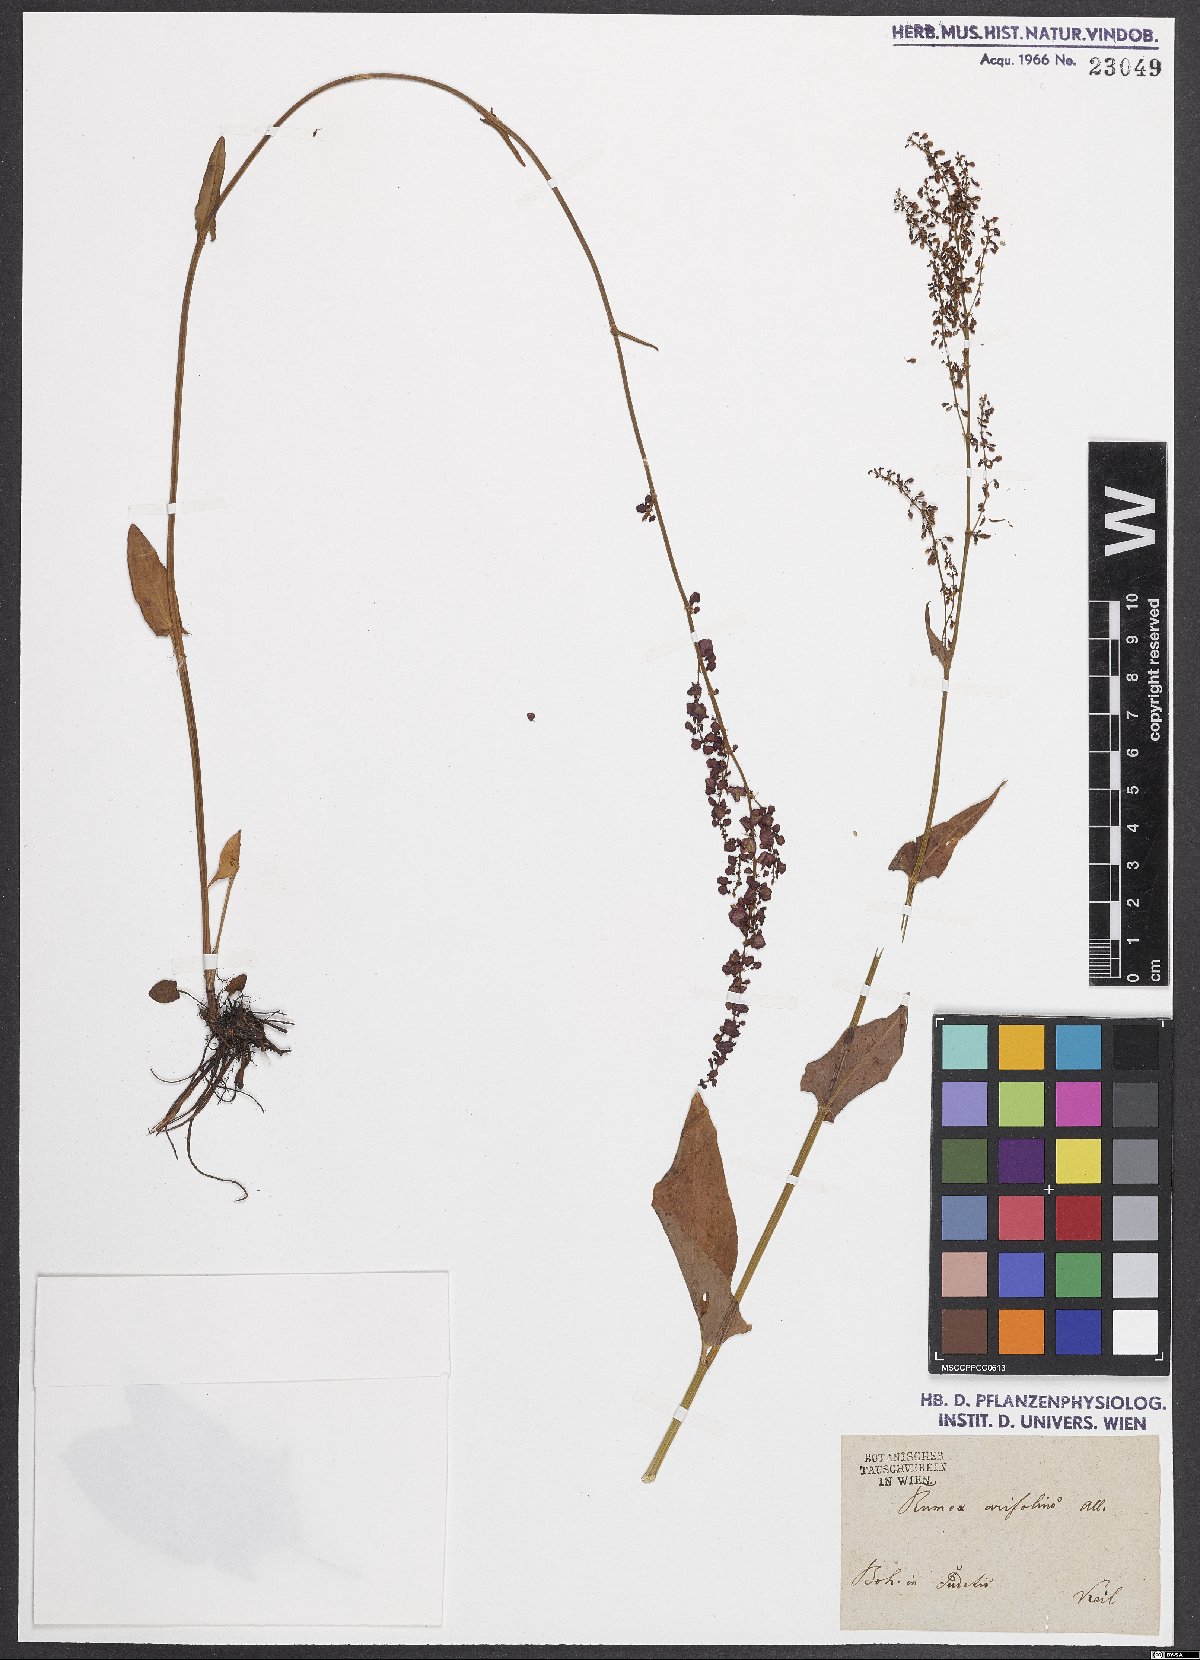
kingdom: Plantae
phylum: Tracheophyta
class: Magnoliopsida
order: Caryophyllales
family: Polygonaceae
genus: Rumex
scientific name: Rumex aquaticus
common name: Scottish dock
